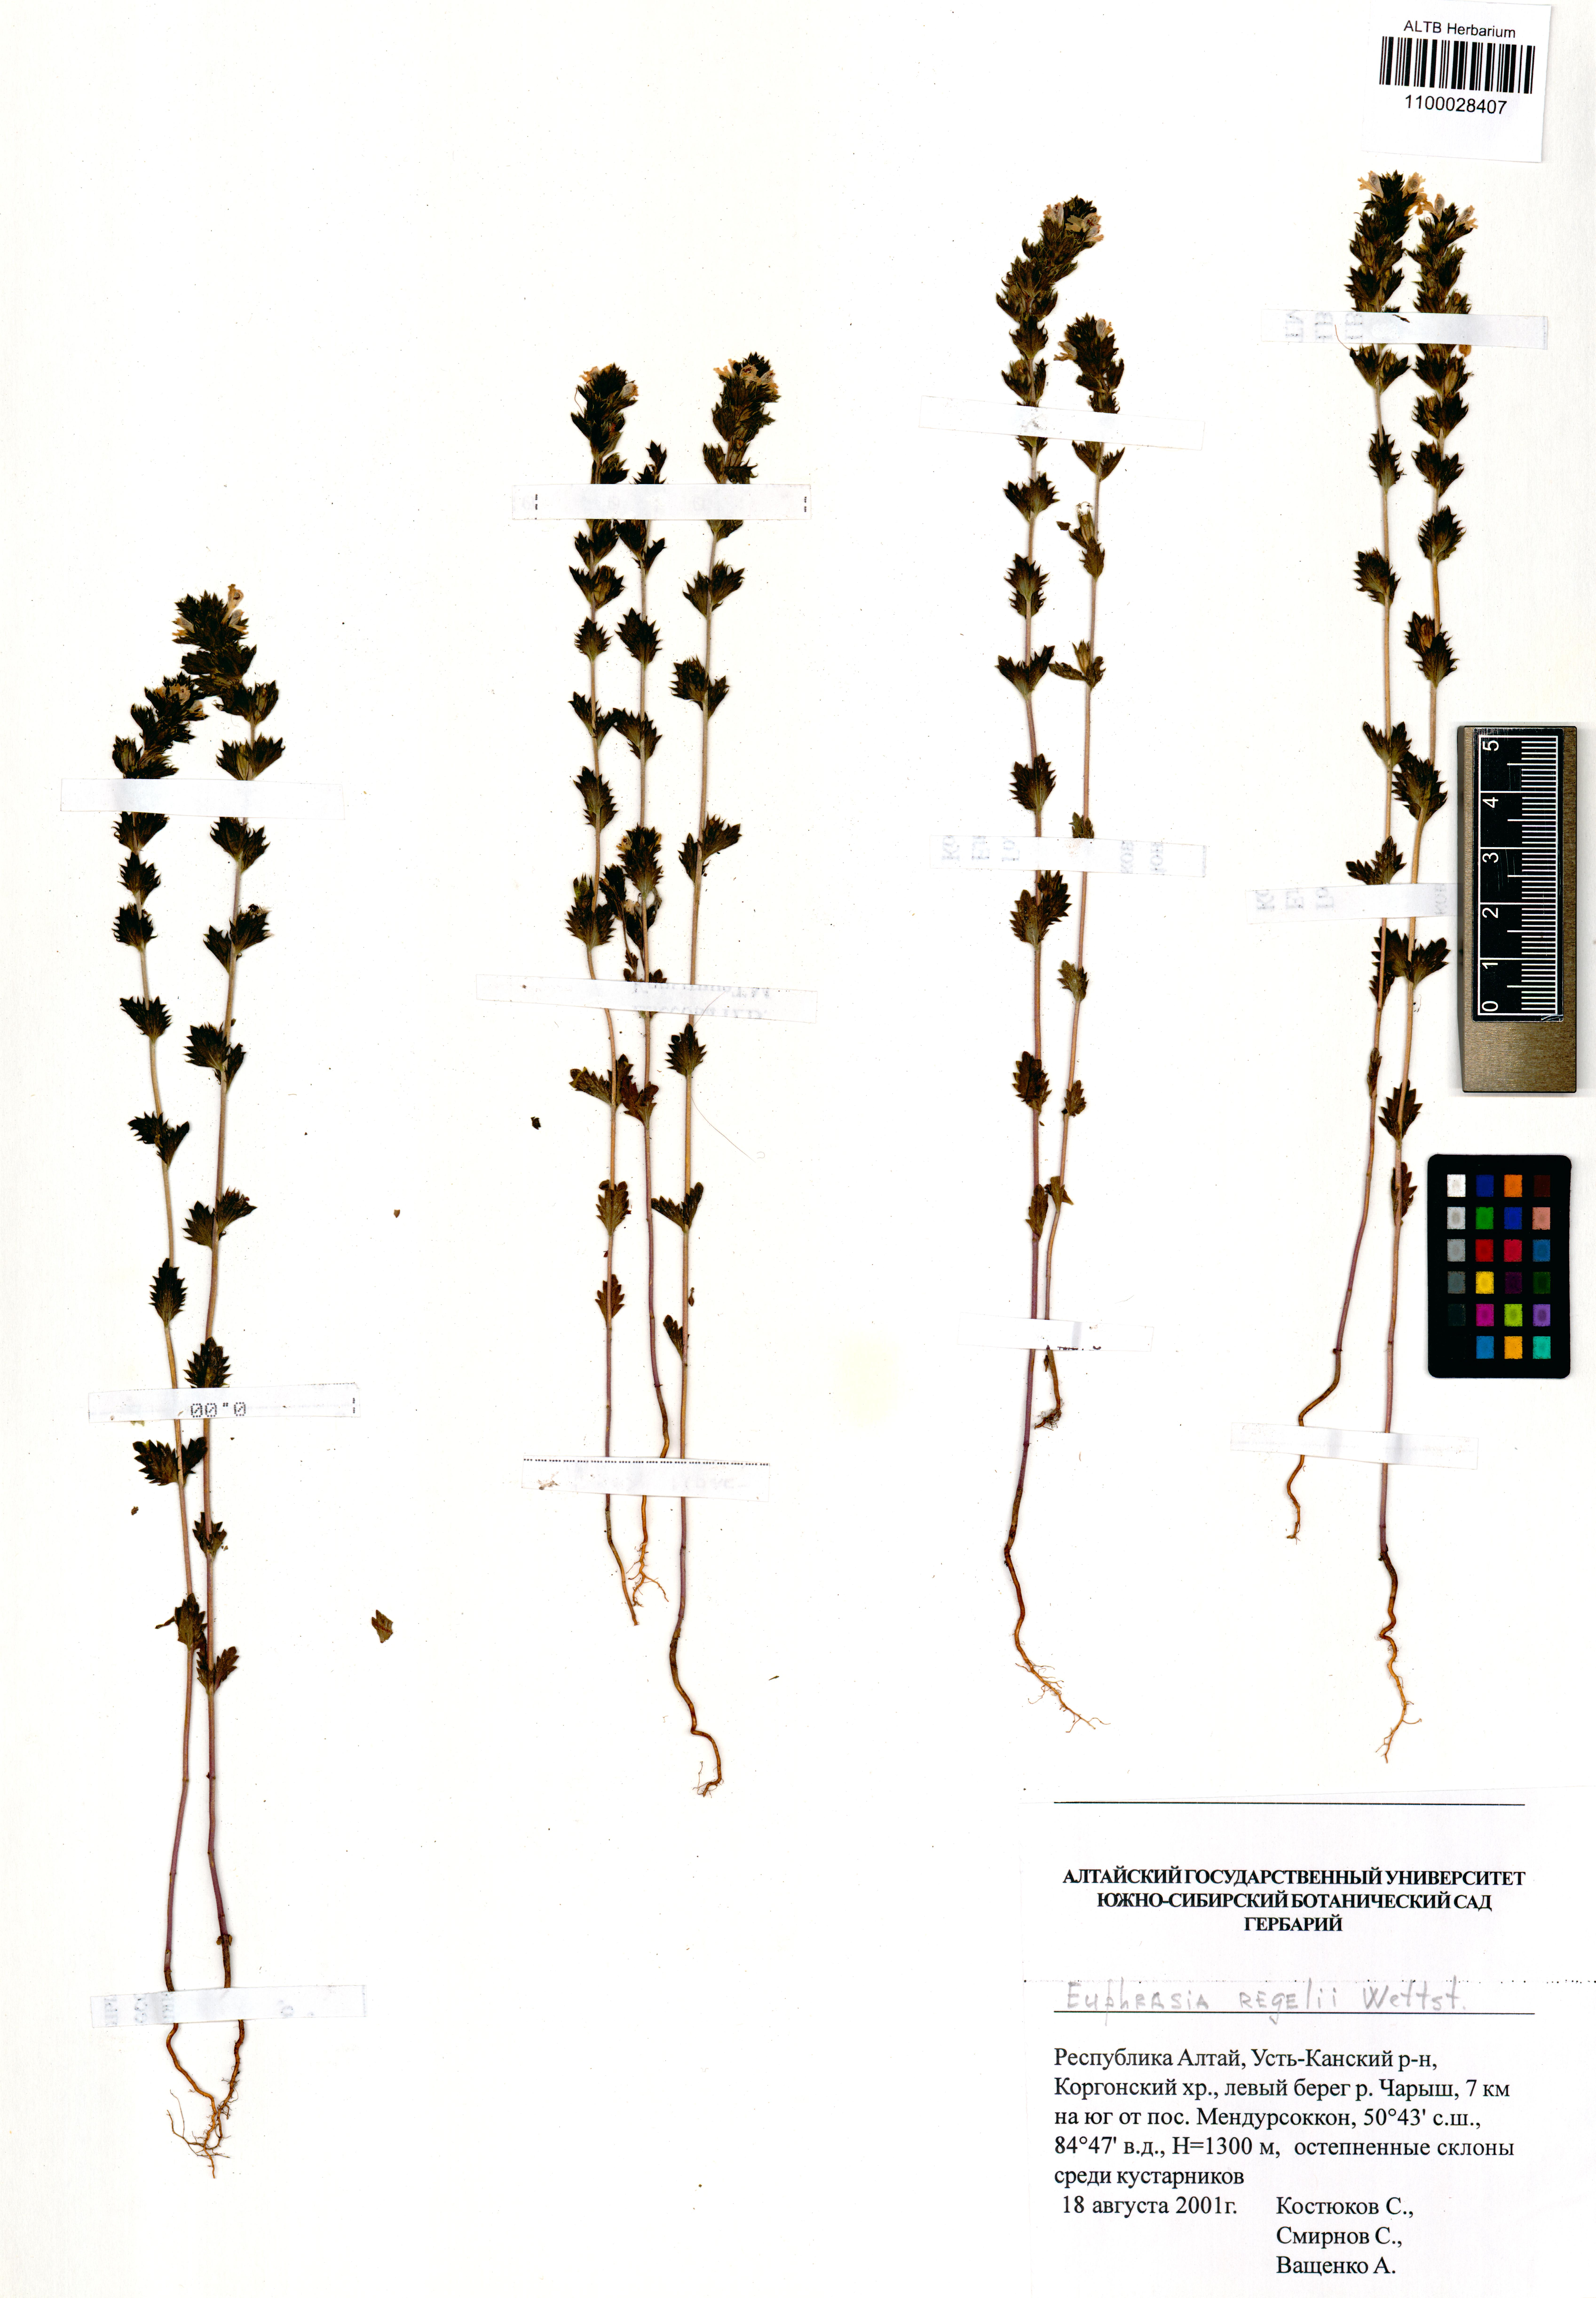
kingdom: Plantae
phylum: Tracheophyta
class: Magnoliopsida
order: Lamiales
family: Orobanchaceae
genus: Euphrasia
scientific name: Euphrasia regelii
